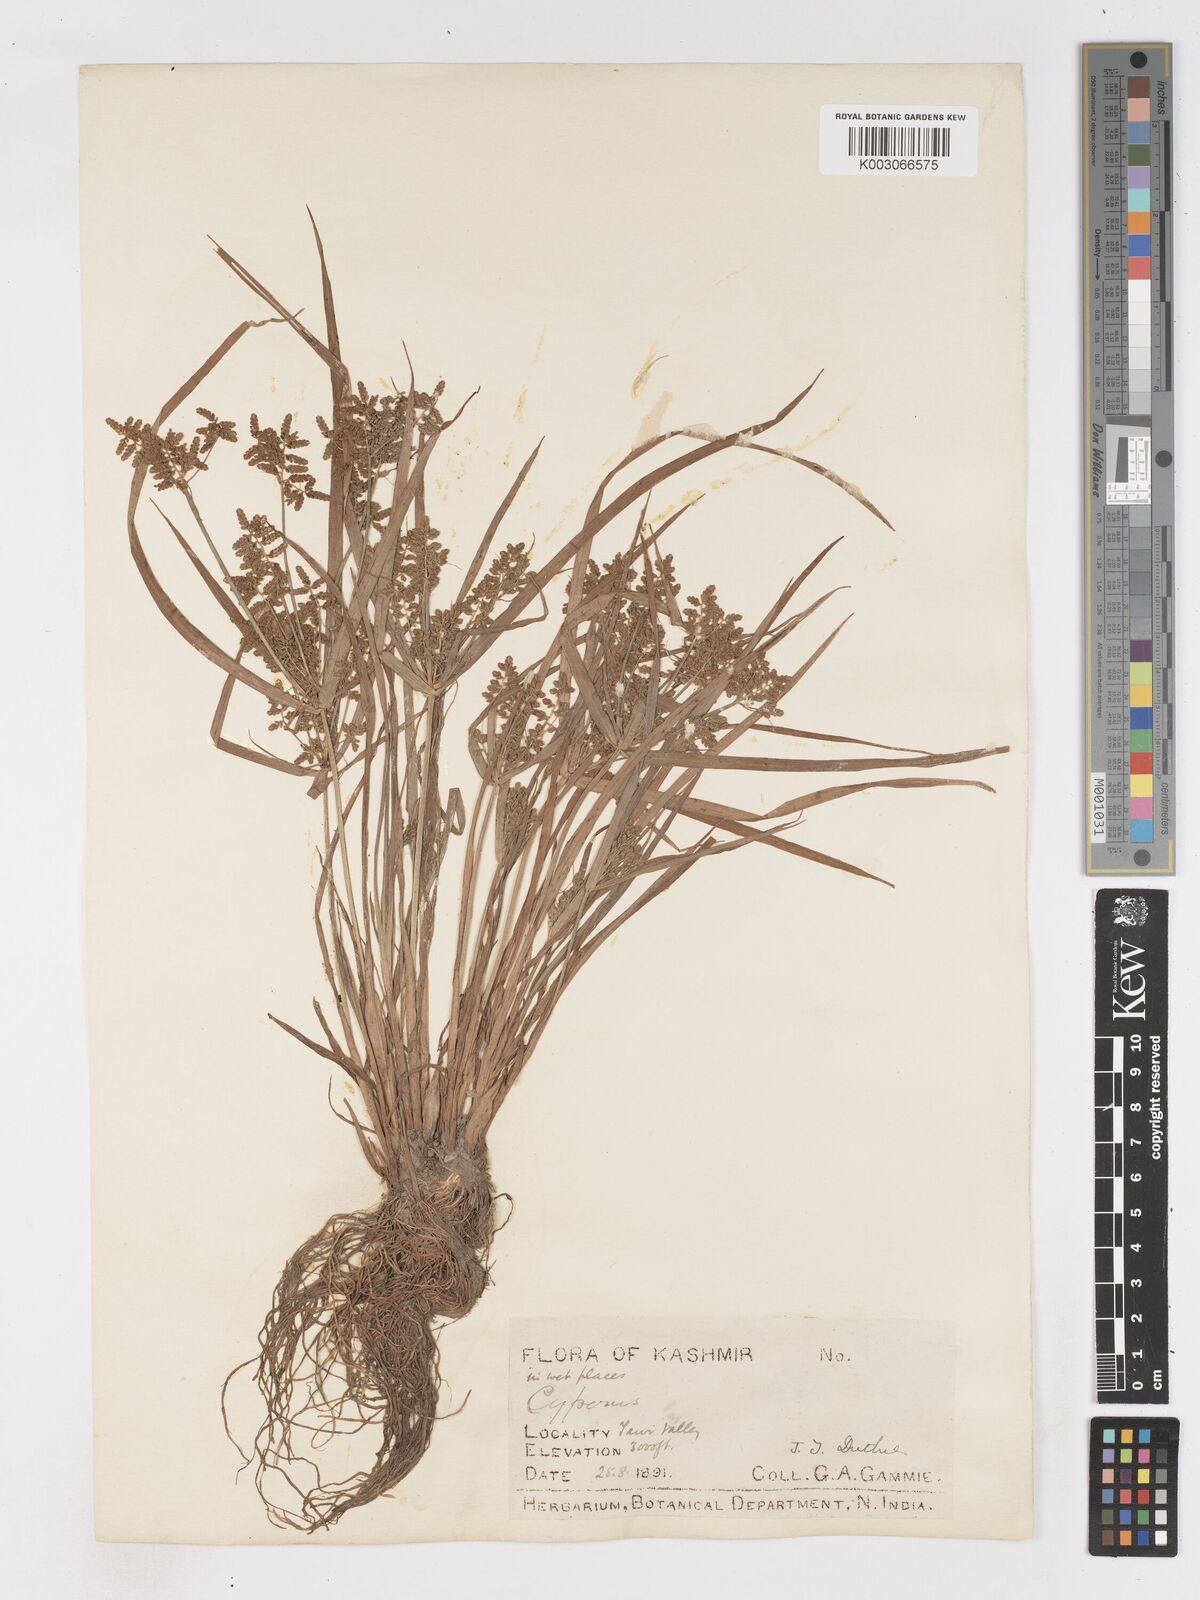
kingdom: Plantae
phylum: Tracheophyta
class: Liliopsida
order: Poales
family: Cyperaceae
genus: Cyperus
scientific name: Cyperus alulatus
